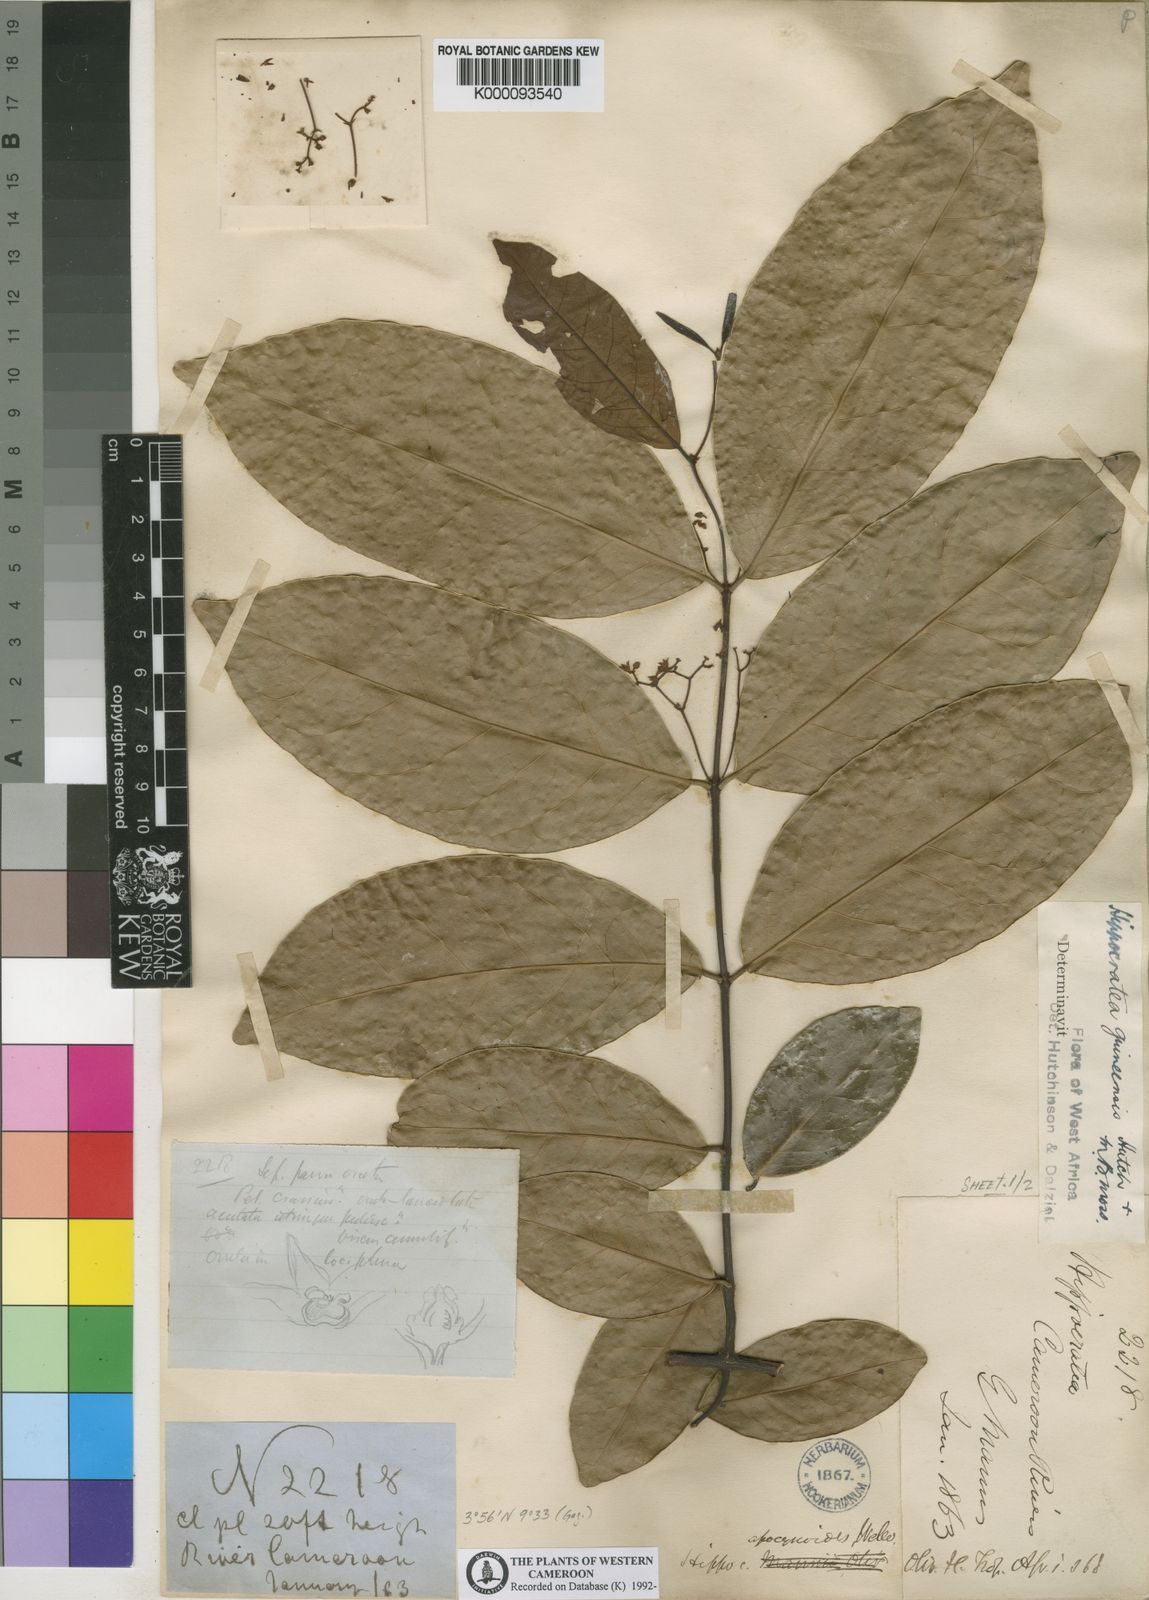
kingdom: Plantae
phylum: Tracheophyta
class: Magnoliopsida
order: Celastrales
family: Celastraceae
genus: Loeseneriella
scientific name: Loeseneriella
